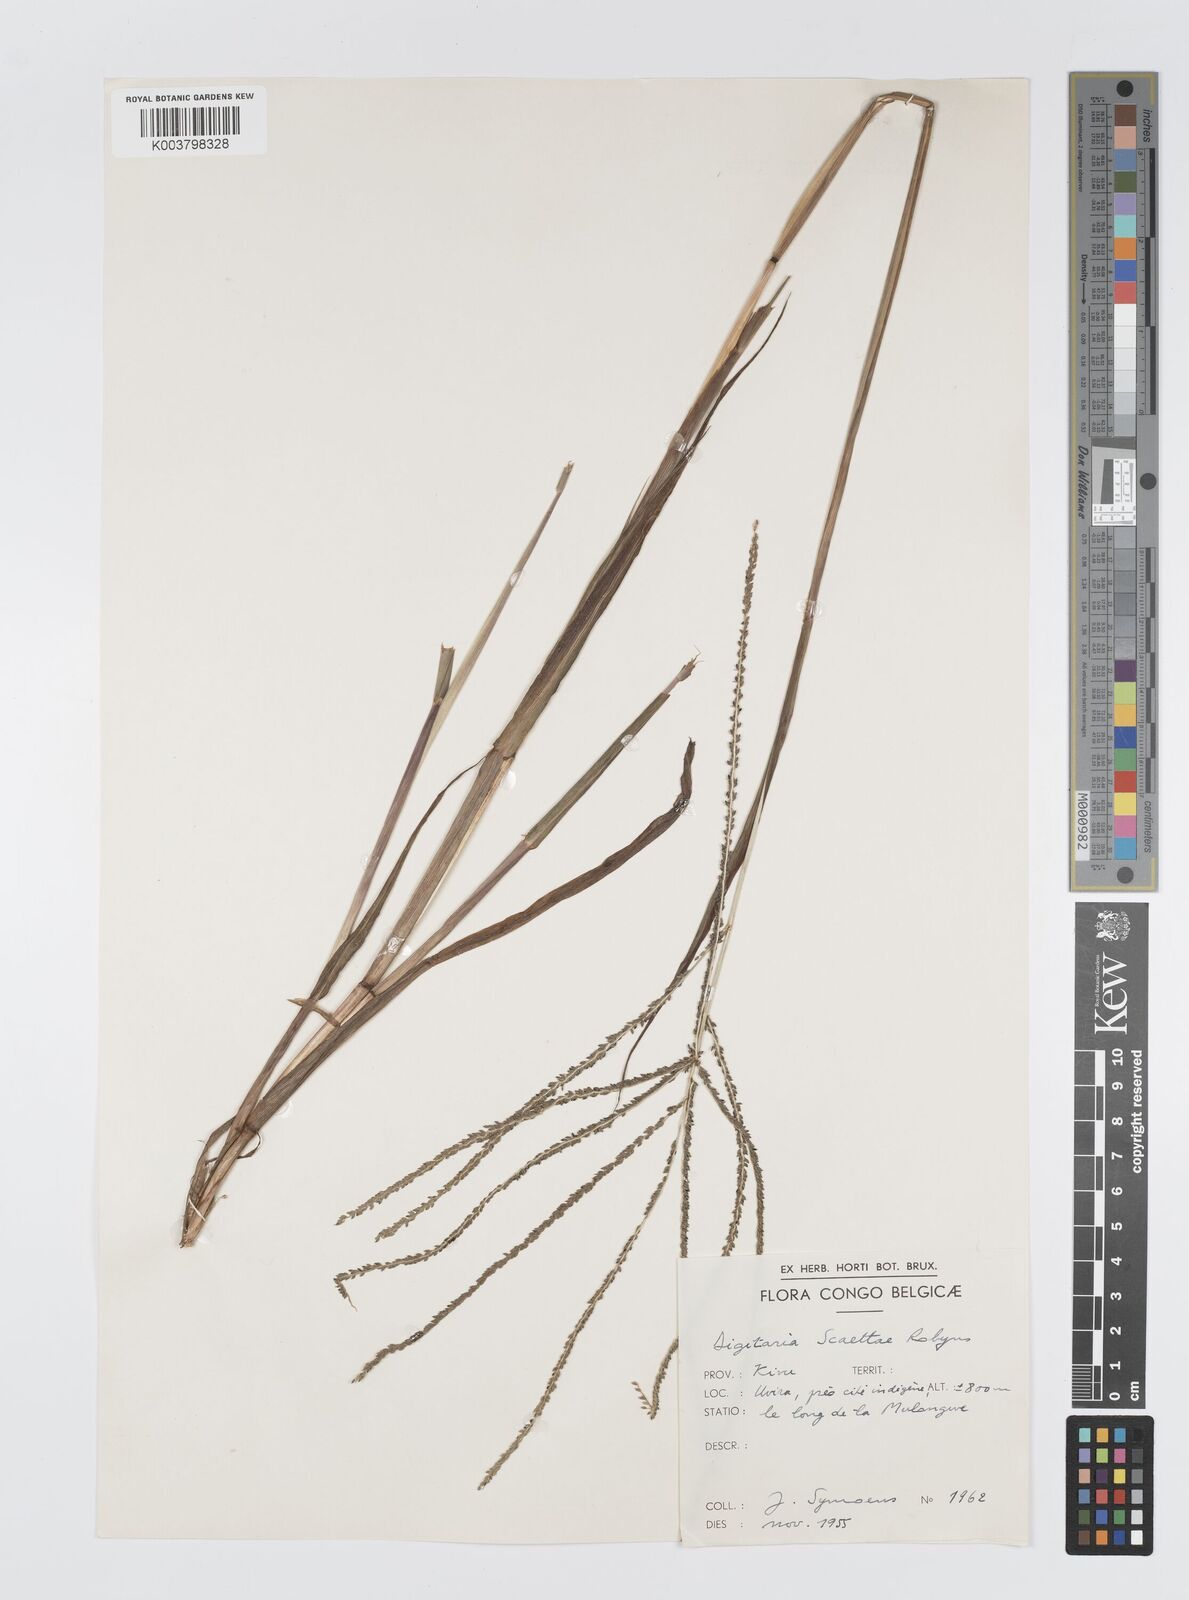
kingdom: Plantae
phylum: Tracheophyta
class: Liliopsida
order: Poales
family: Poaceae
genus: Digitaria
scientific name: Digitaria thouarsiana
